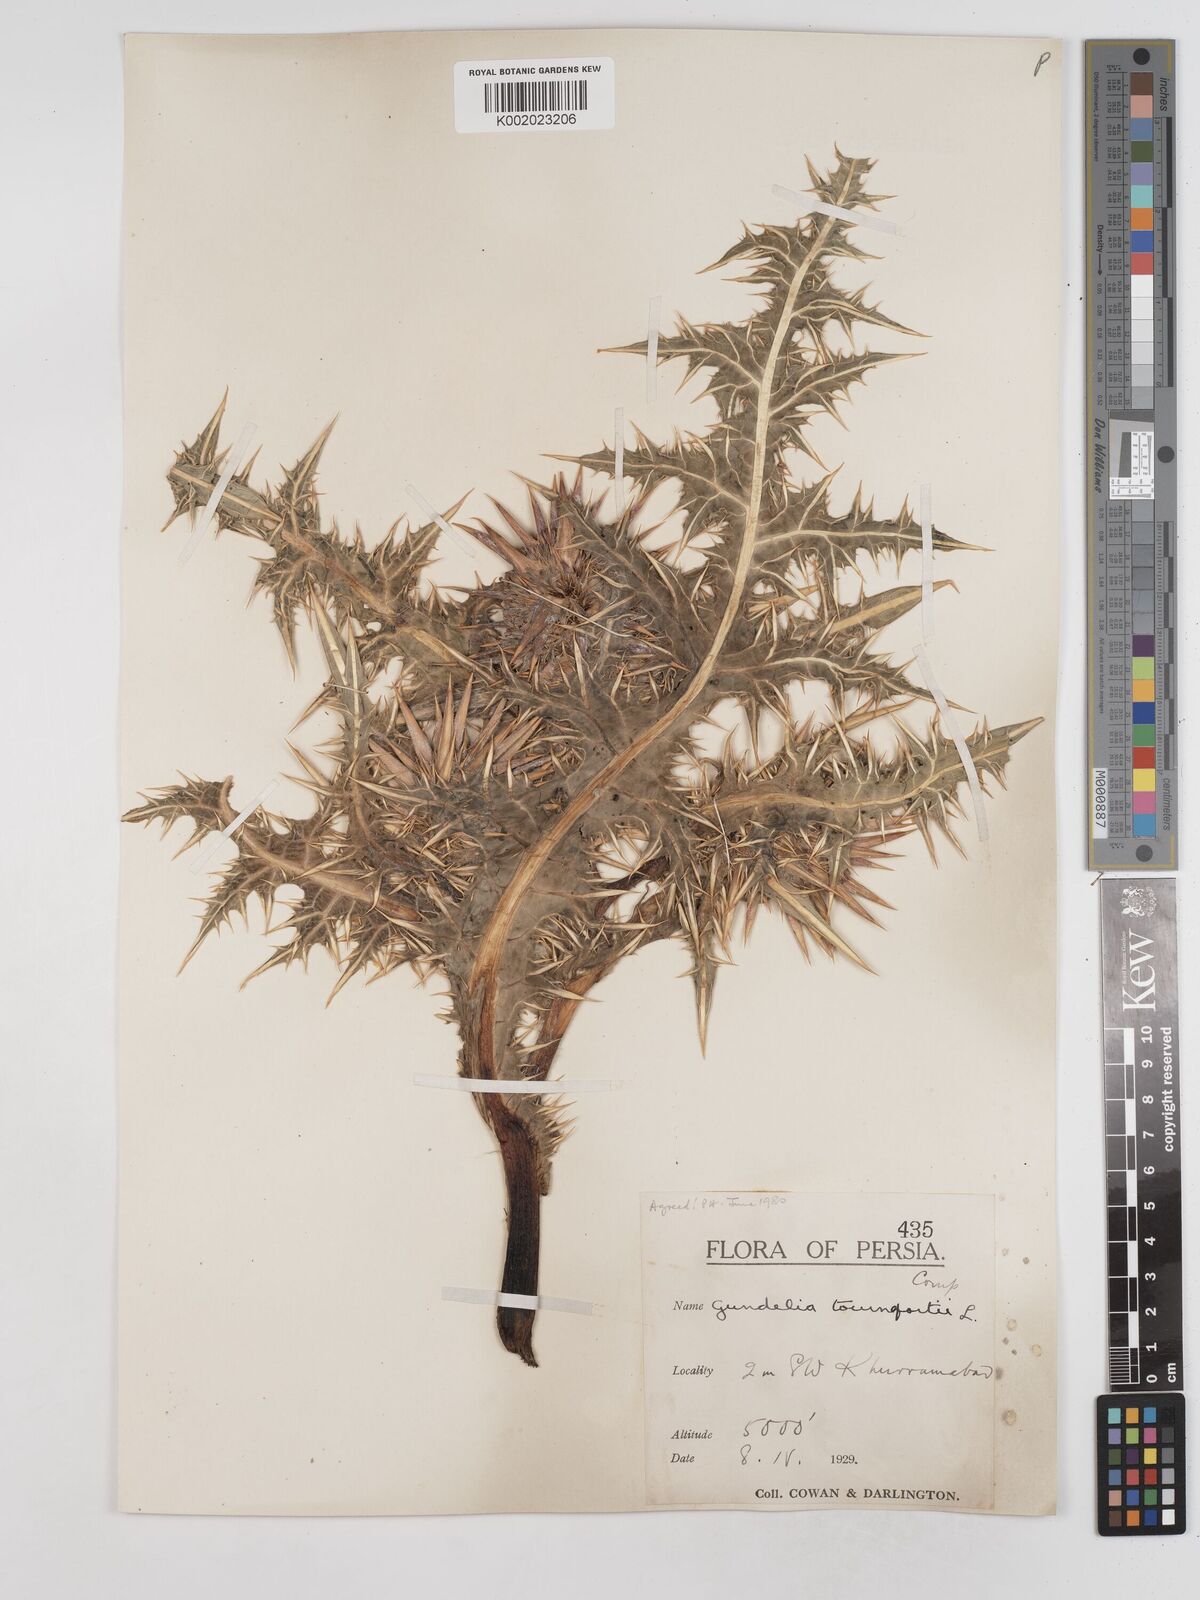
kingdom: Plantae
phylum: Tracheophyta
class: Magnoliopsida
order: Asterales
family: Asteraceae
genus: Gundelia
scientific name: Gundelia tournefortii
